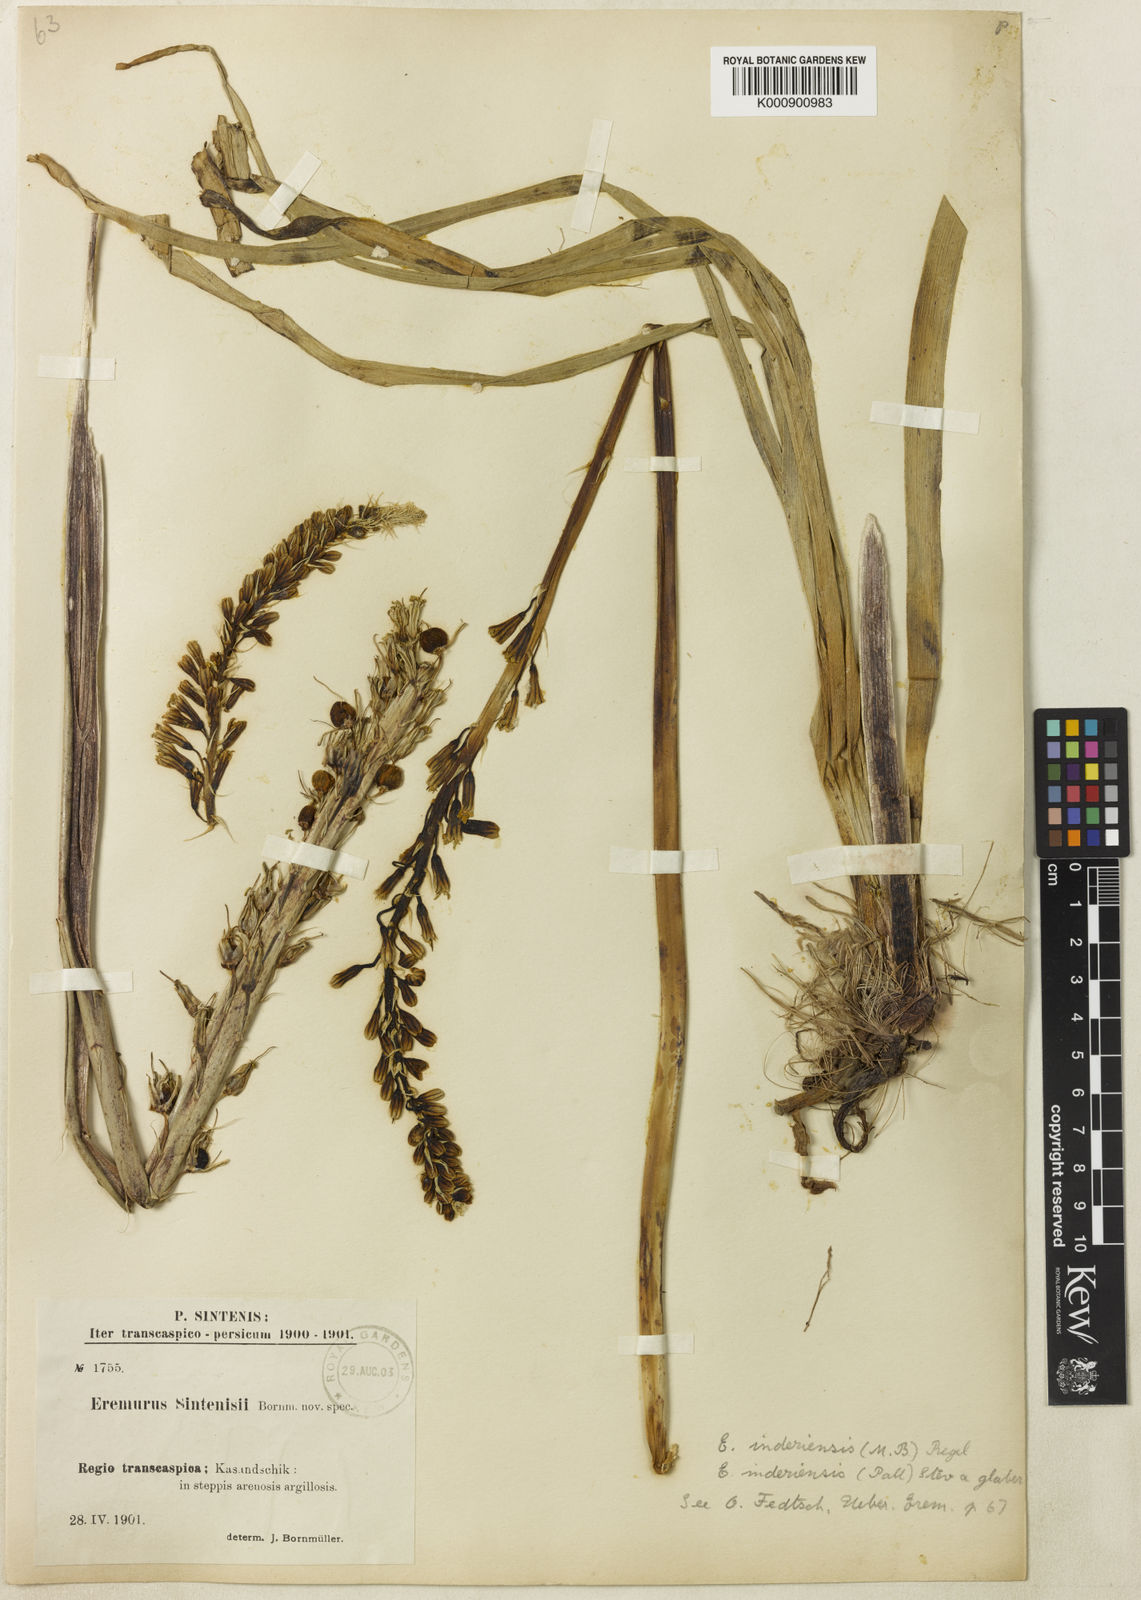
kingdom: Plantae
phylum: Tracheophyta
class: Liliopsida
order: Asparagales
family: Asphodelaceae
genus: Eremurus
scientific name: Eremurus inderiensis
